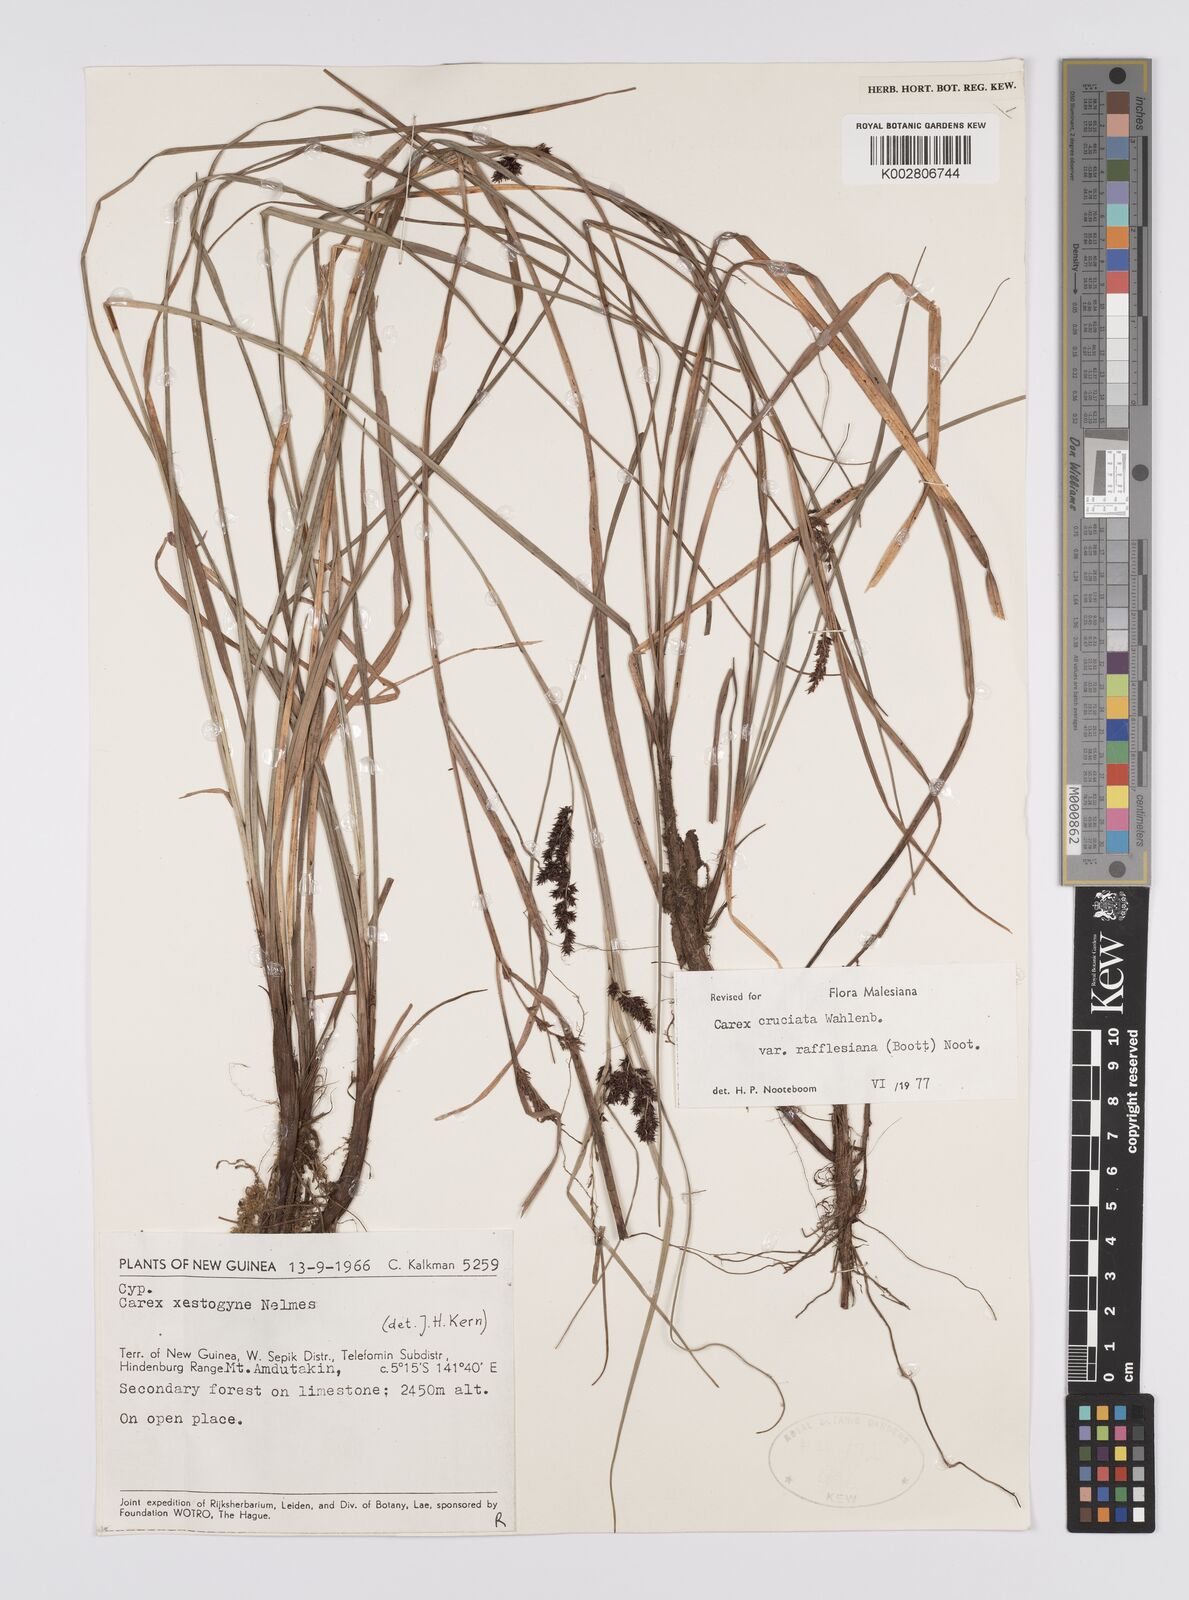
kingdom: Plantae
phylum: Tracheophyta
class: Liliopsida
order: Poales
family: Cyperaceae
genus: Carex
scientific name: Carex rafflesiana
